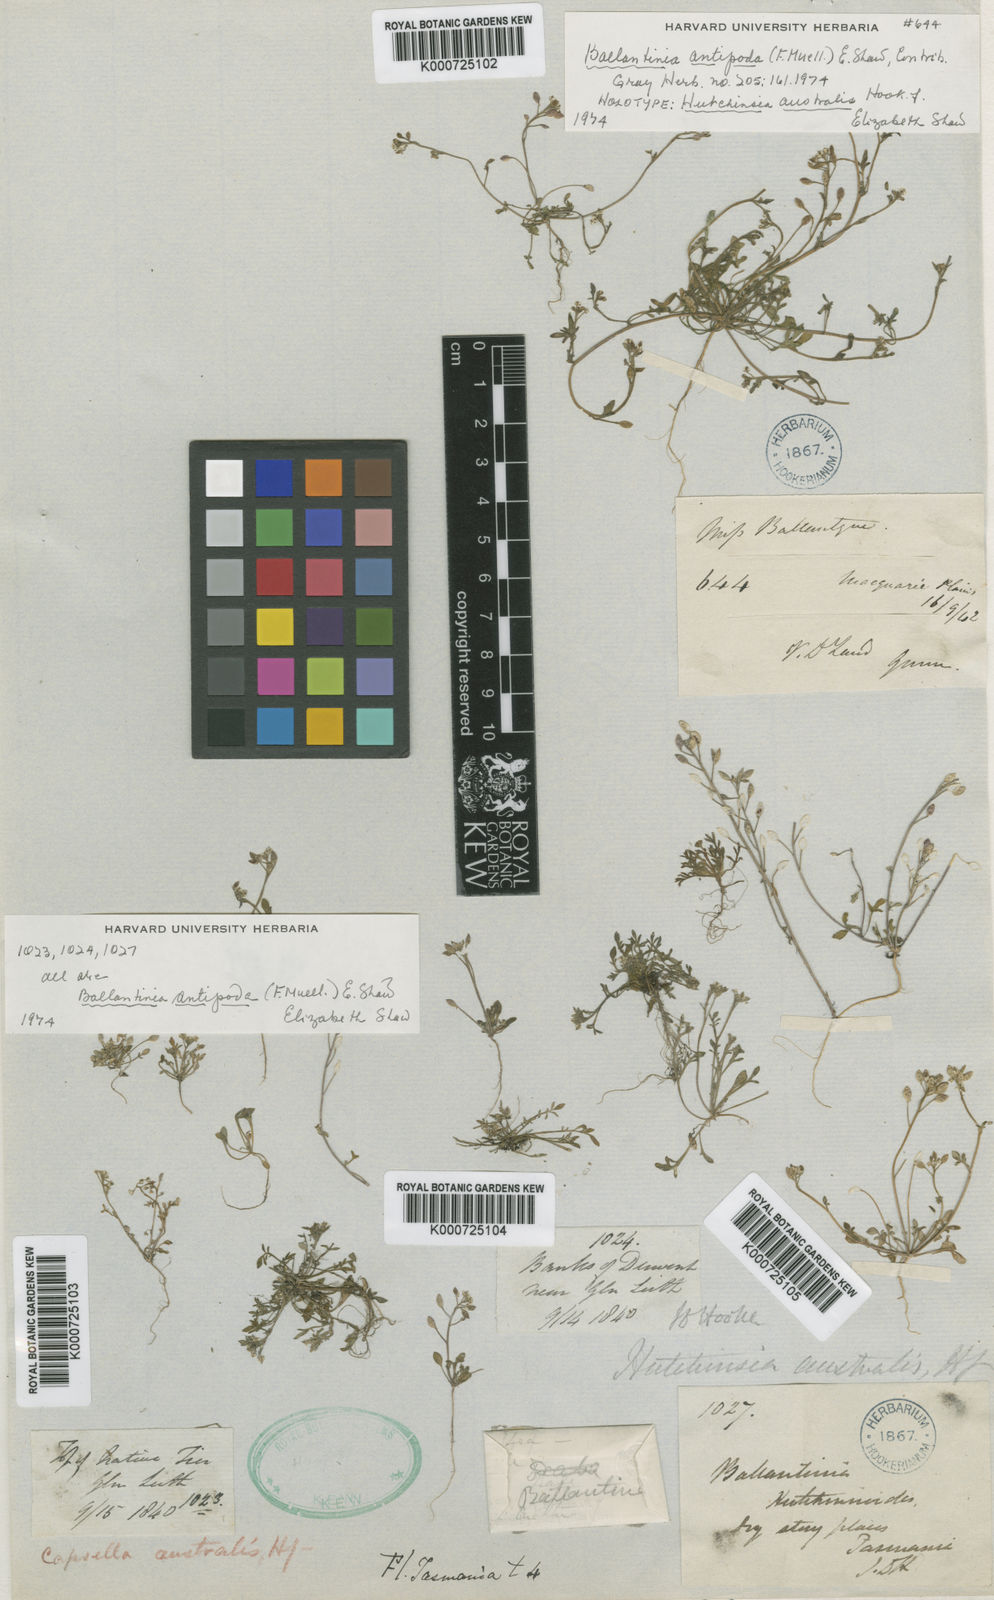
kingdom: Plantae
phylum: Tracheophyta
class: Magnoliopsida
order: Brassicales
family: Brassicaceae
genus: Ballantinia
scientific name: Ballantinia antipoda
